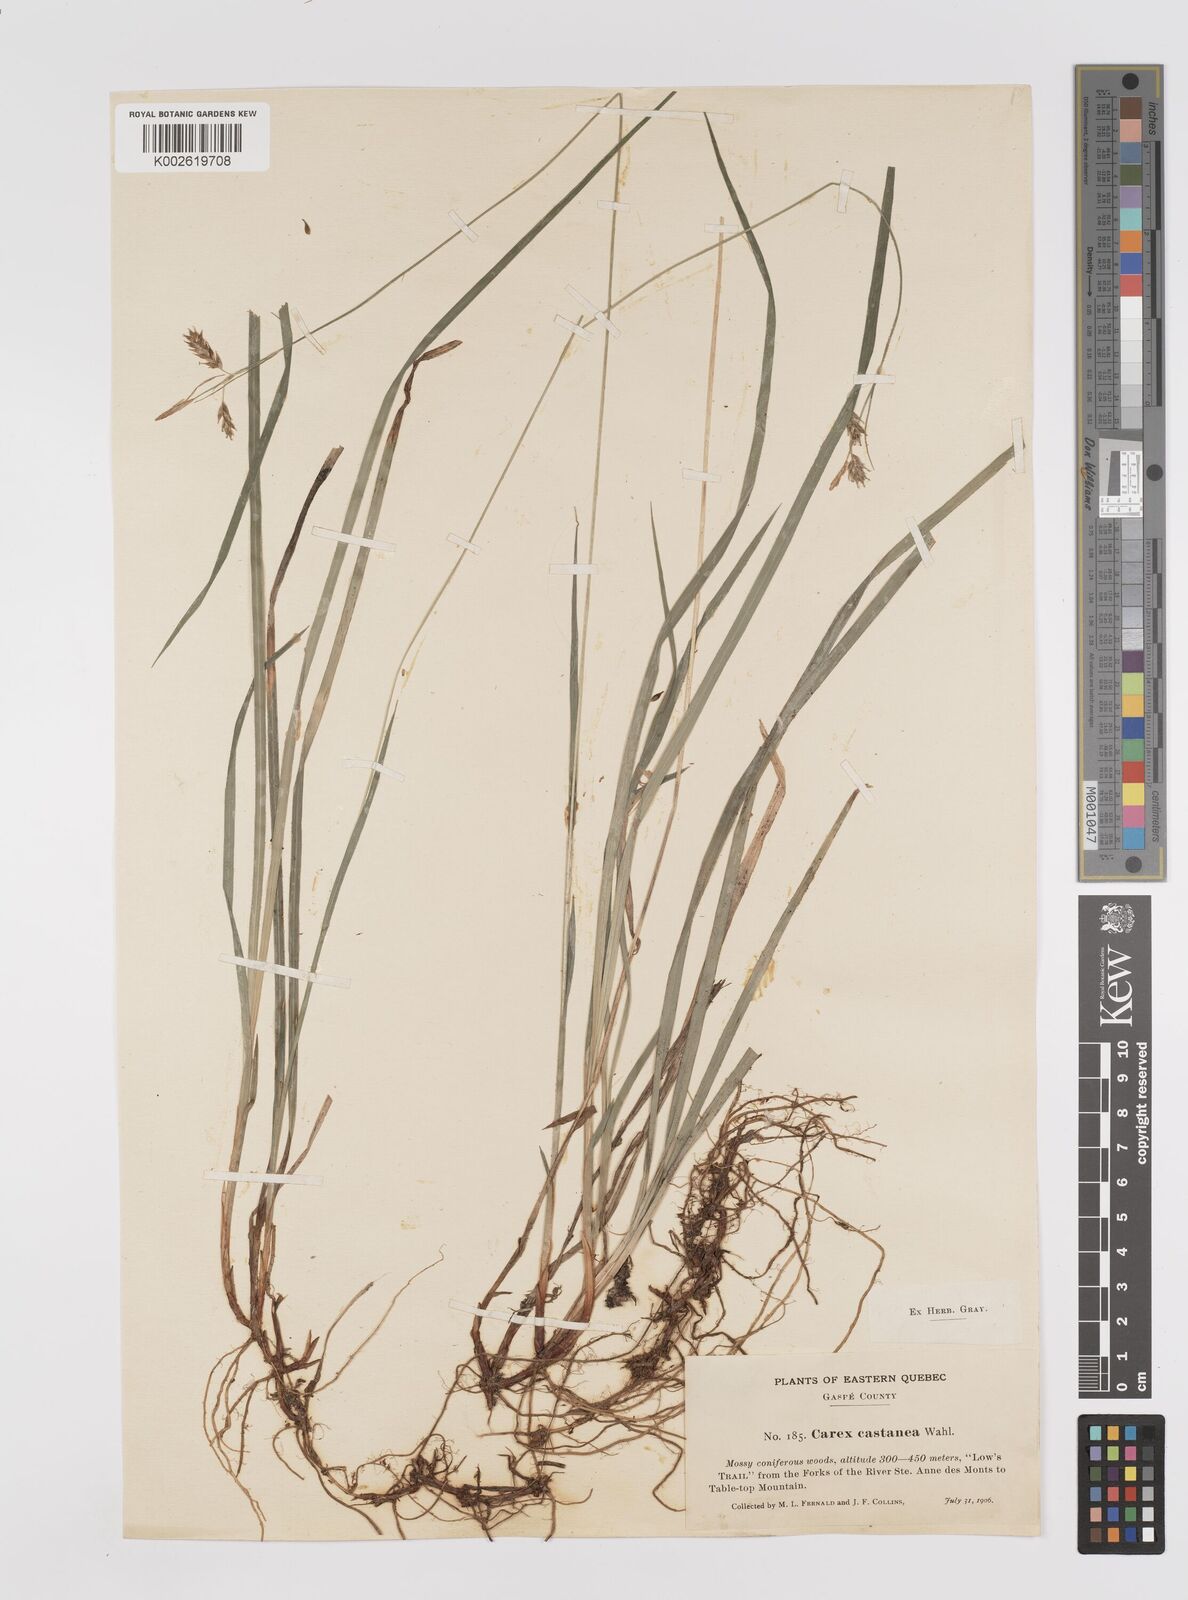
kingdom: Plantae
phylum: Tracheophyta
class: Liliopsida
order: Poales
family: Cyperaceae
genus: Carex
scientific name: Carex castanea
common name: Chestnut sedge
